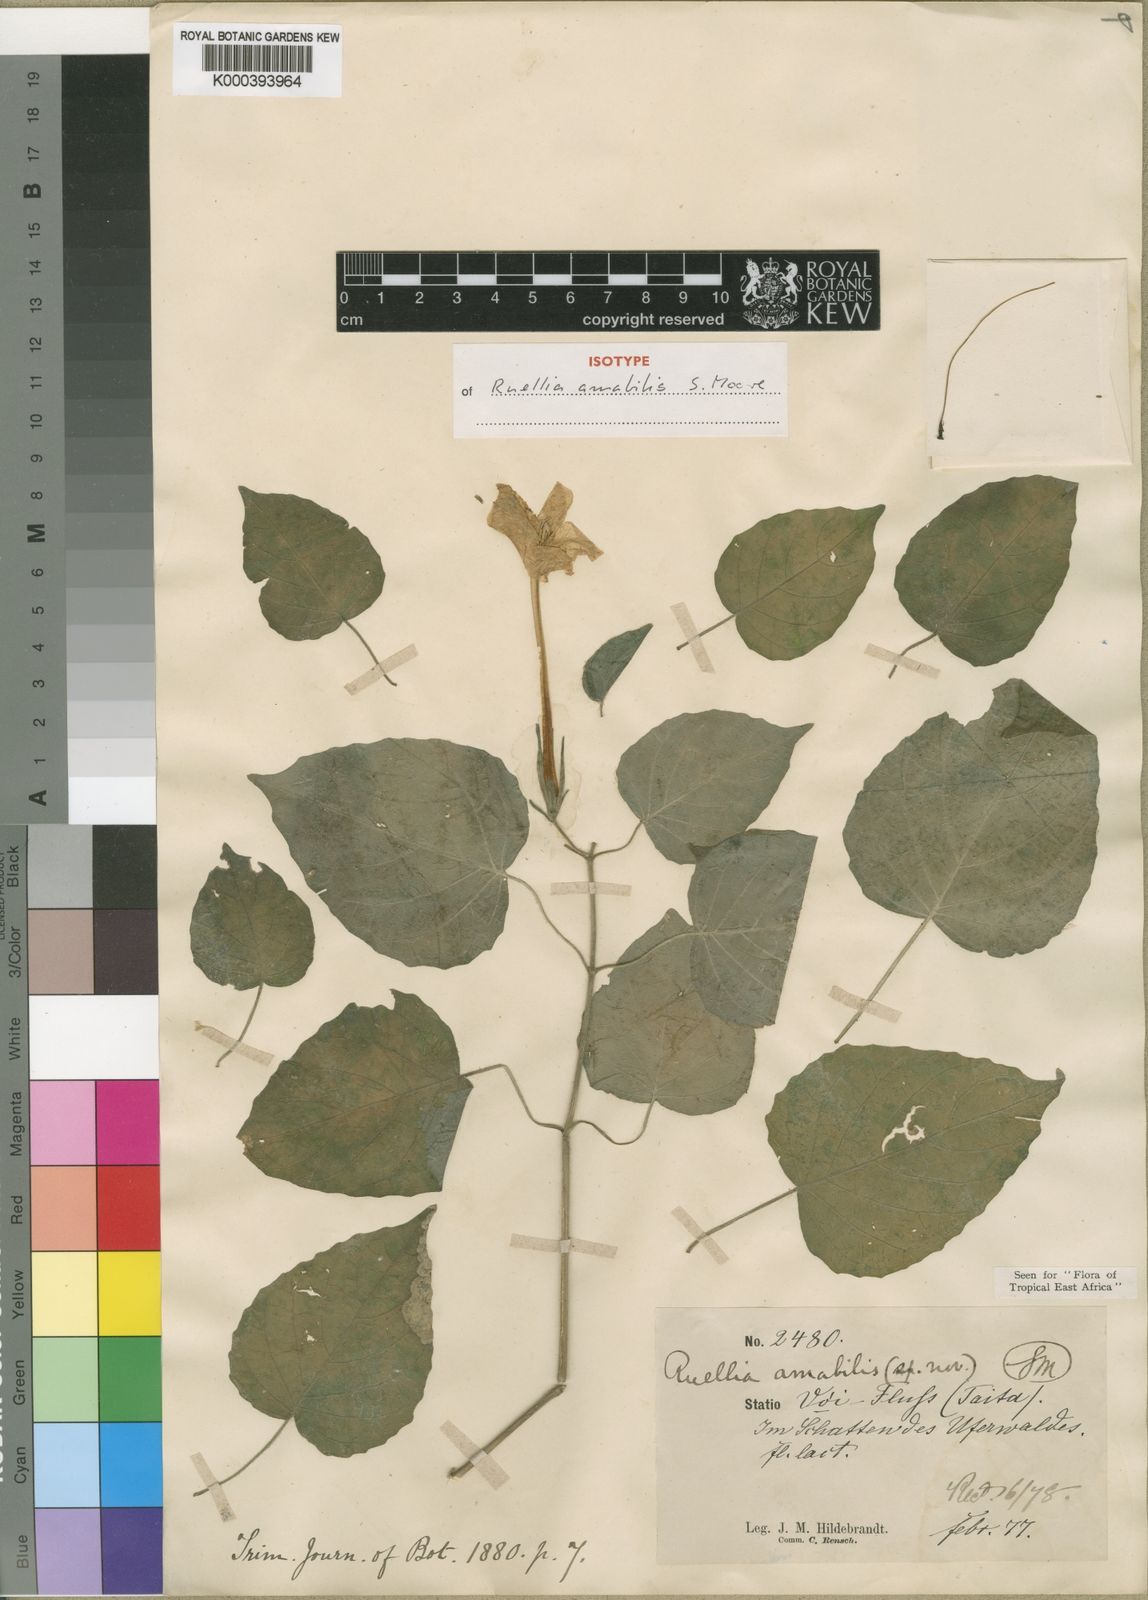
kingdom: Plantae
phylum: Tracheophyta
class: Magnoliopsida
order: Lamiales
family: Acanthaceae
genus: Ruellia
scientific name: Ruellia amabilis
